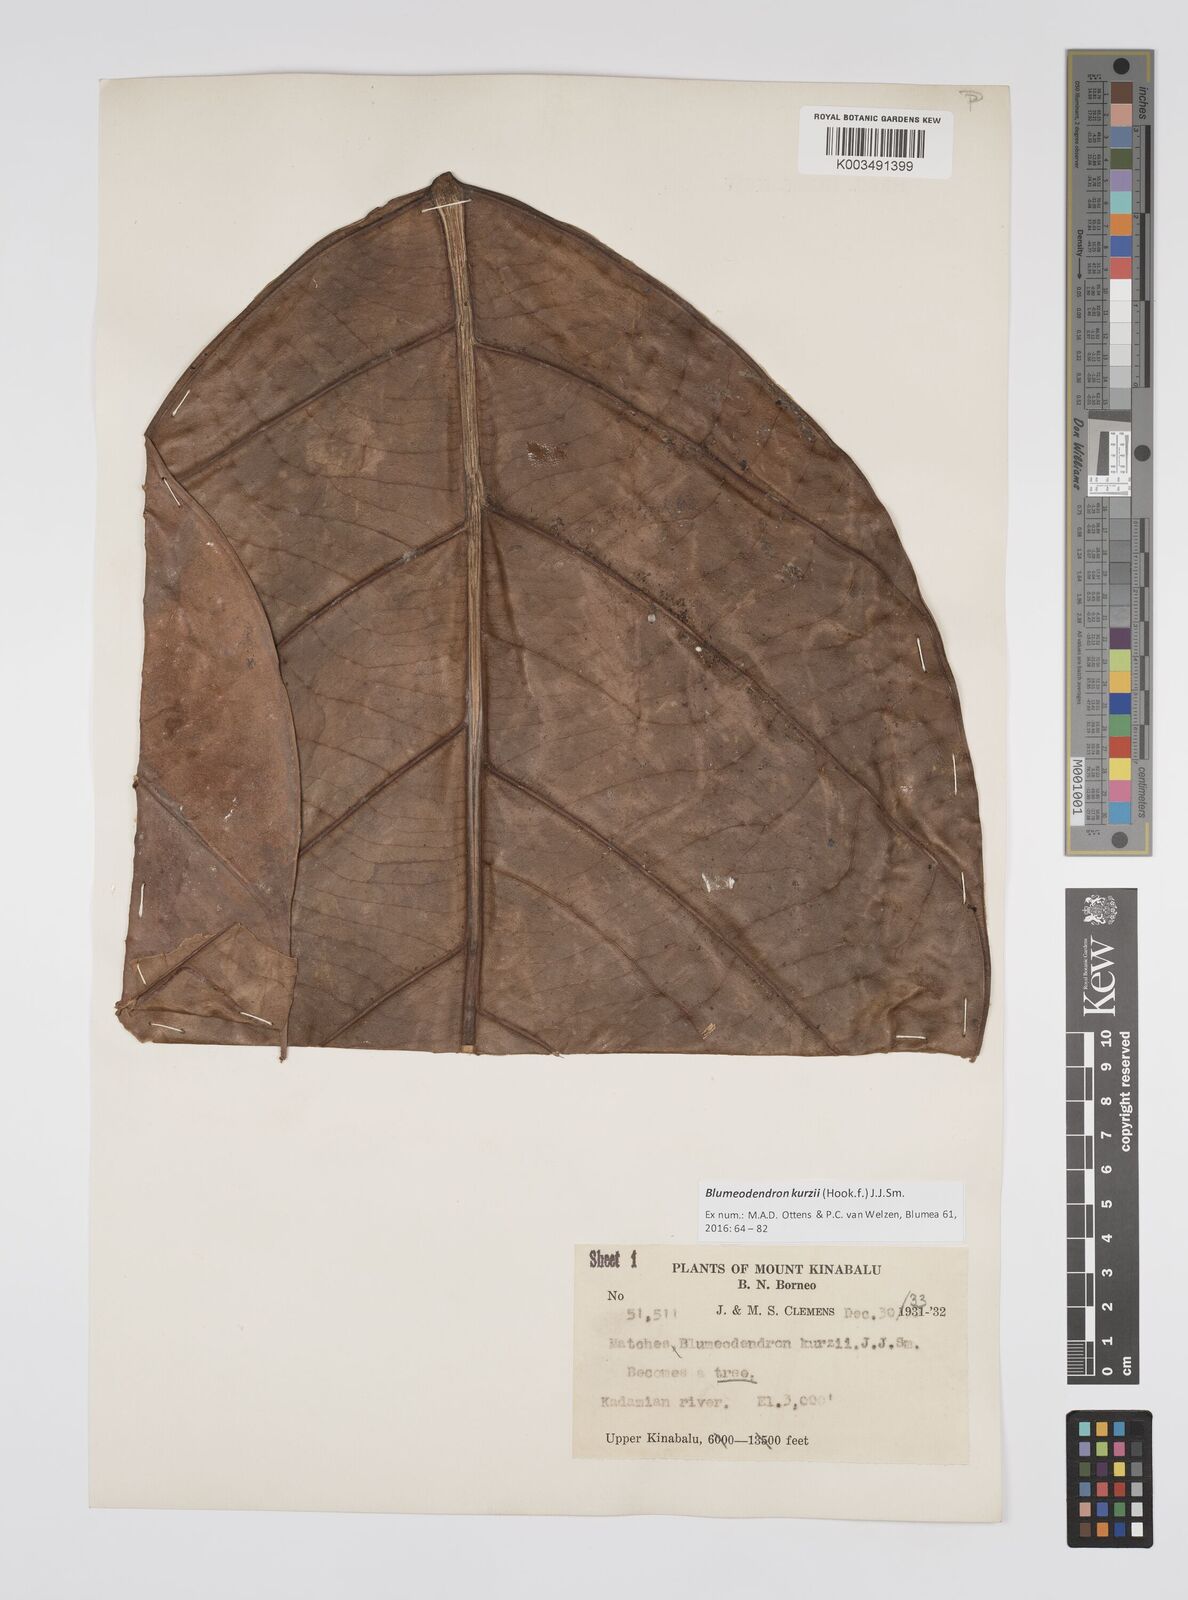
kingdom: Plantae
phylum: Tracheophyta
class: Magnoliopsida
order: Malpighiales
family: Euphorbiaceae
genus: Blumeodendron
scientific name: Blumeodendron kurzii
